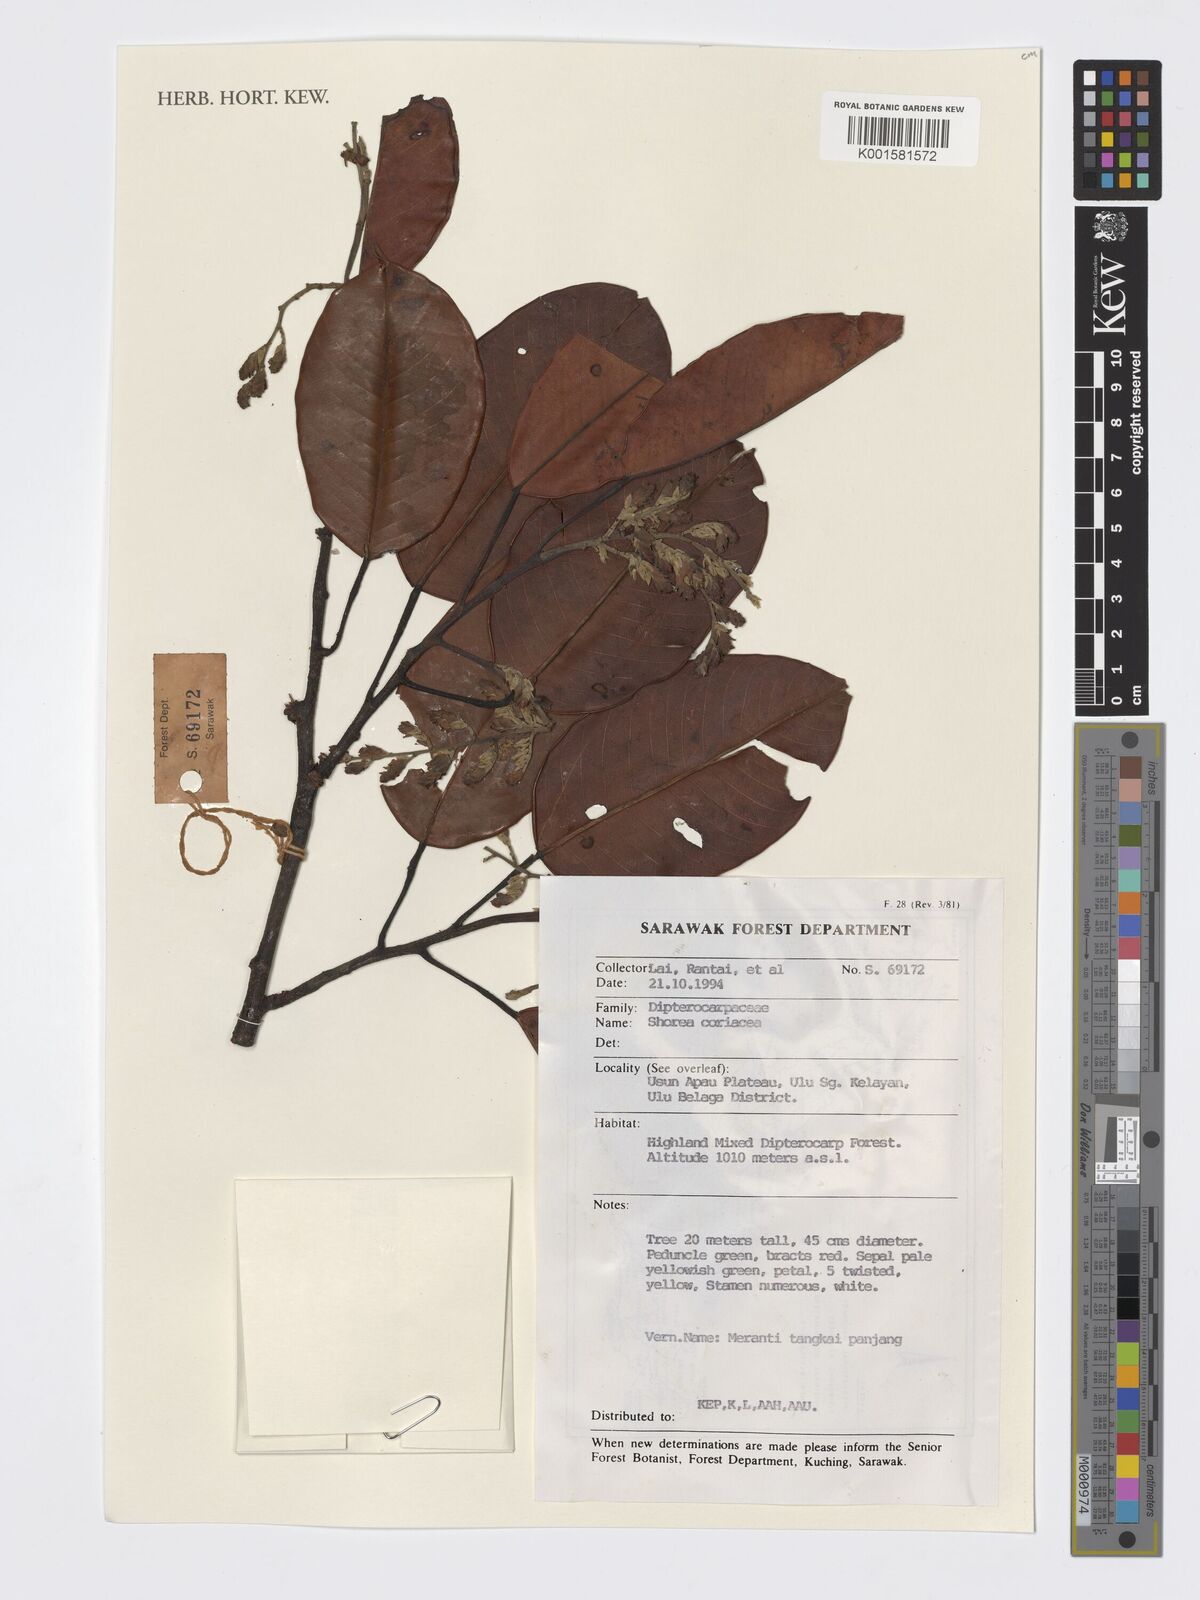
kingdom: Plantae
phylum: Tracheophyta
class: Magnoliopsida
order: Malvales
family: Dipterocarpaceae
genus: Shorea
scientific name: Shorea coriacea
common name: Seraya tangkai panjang
